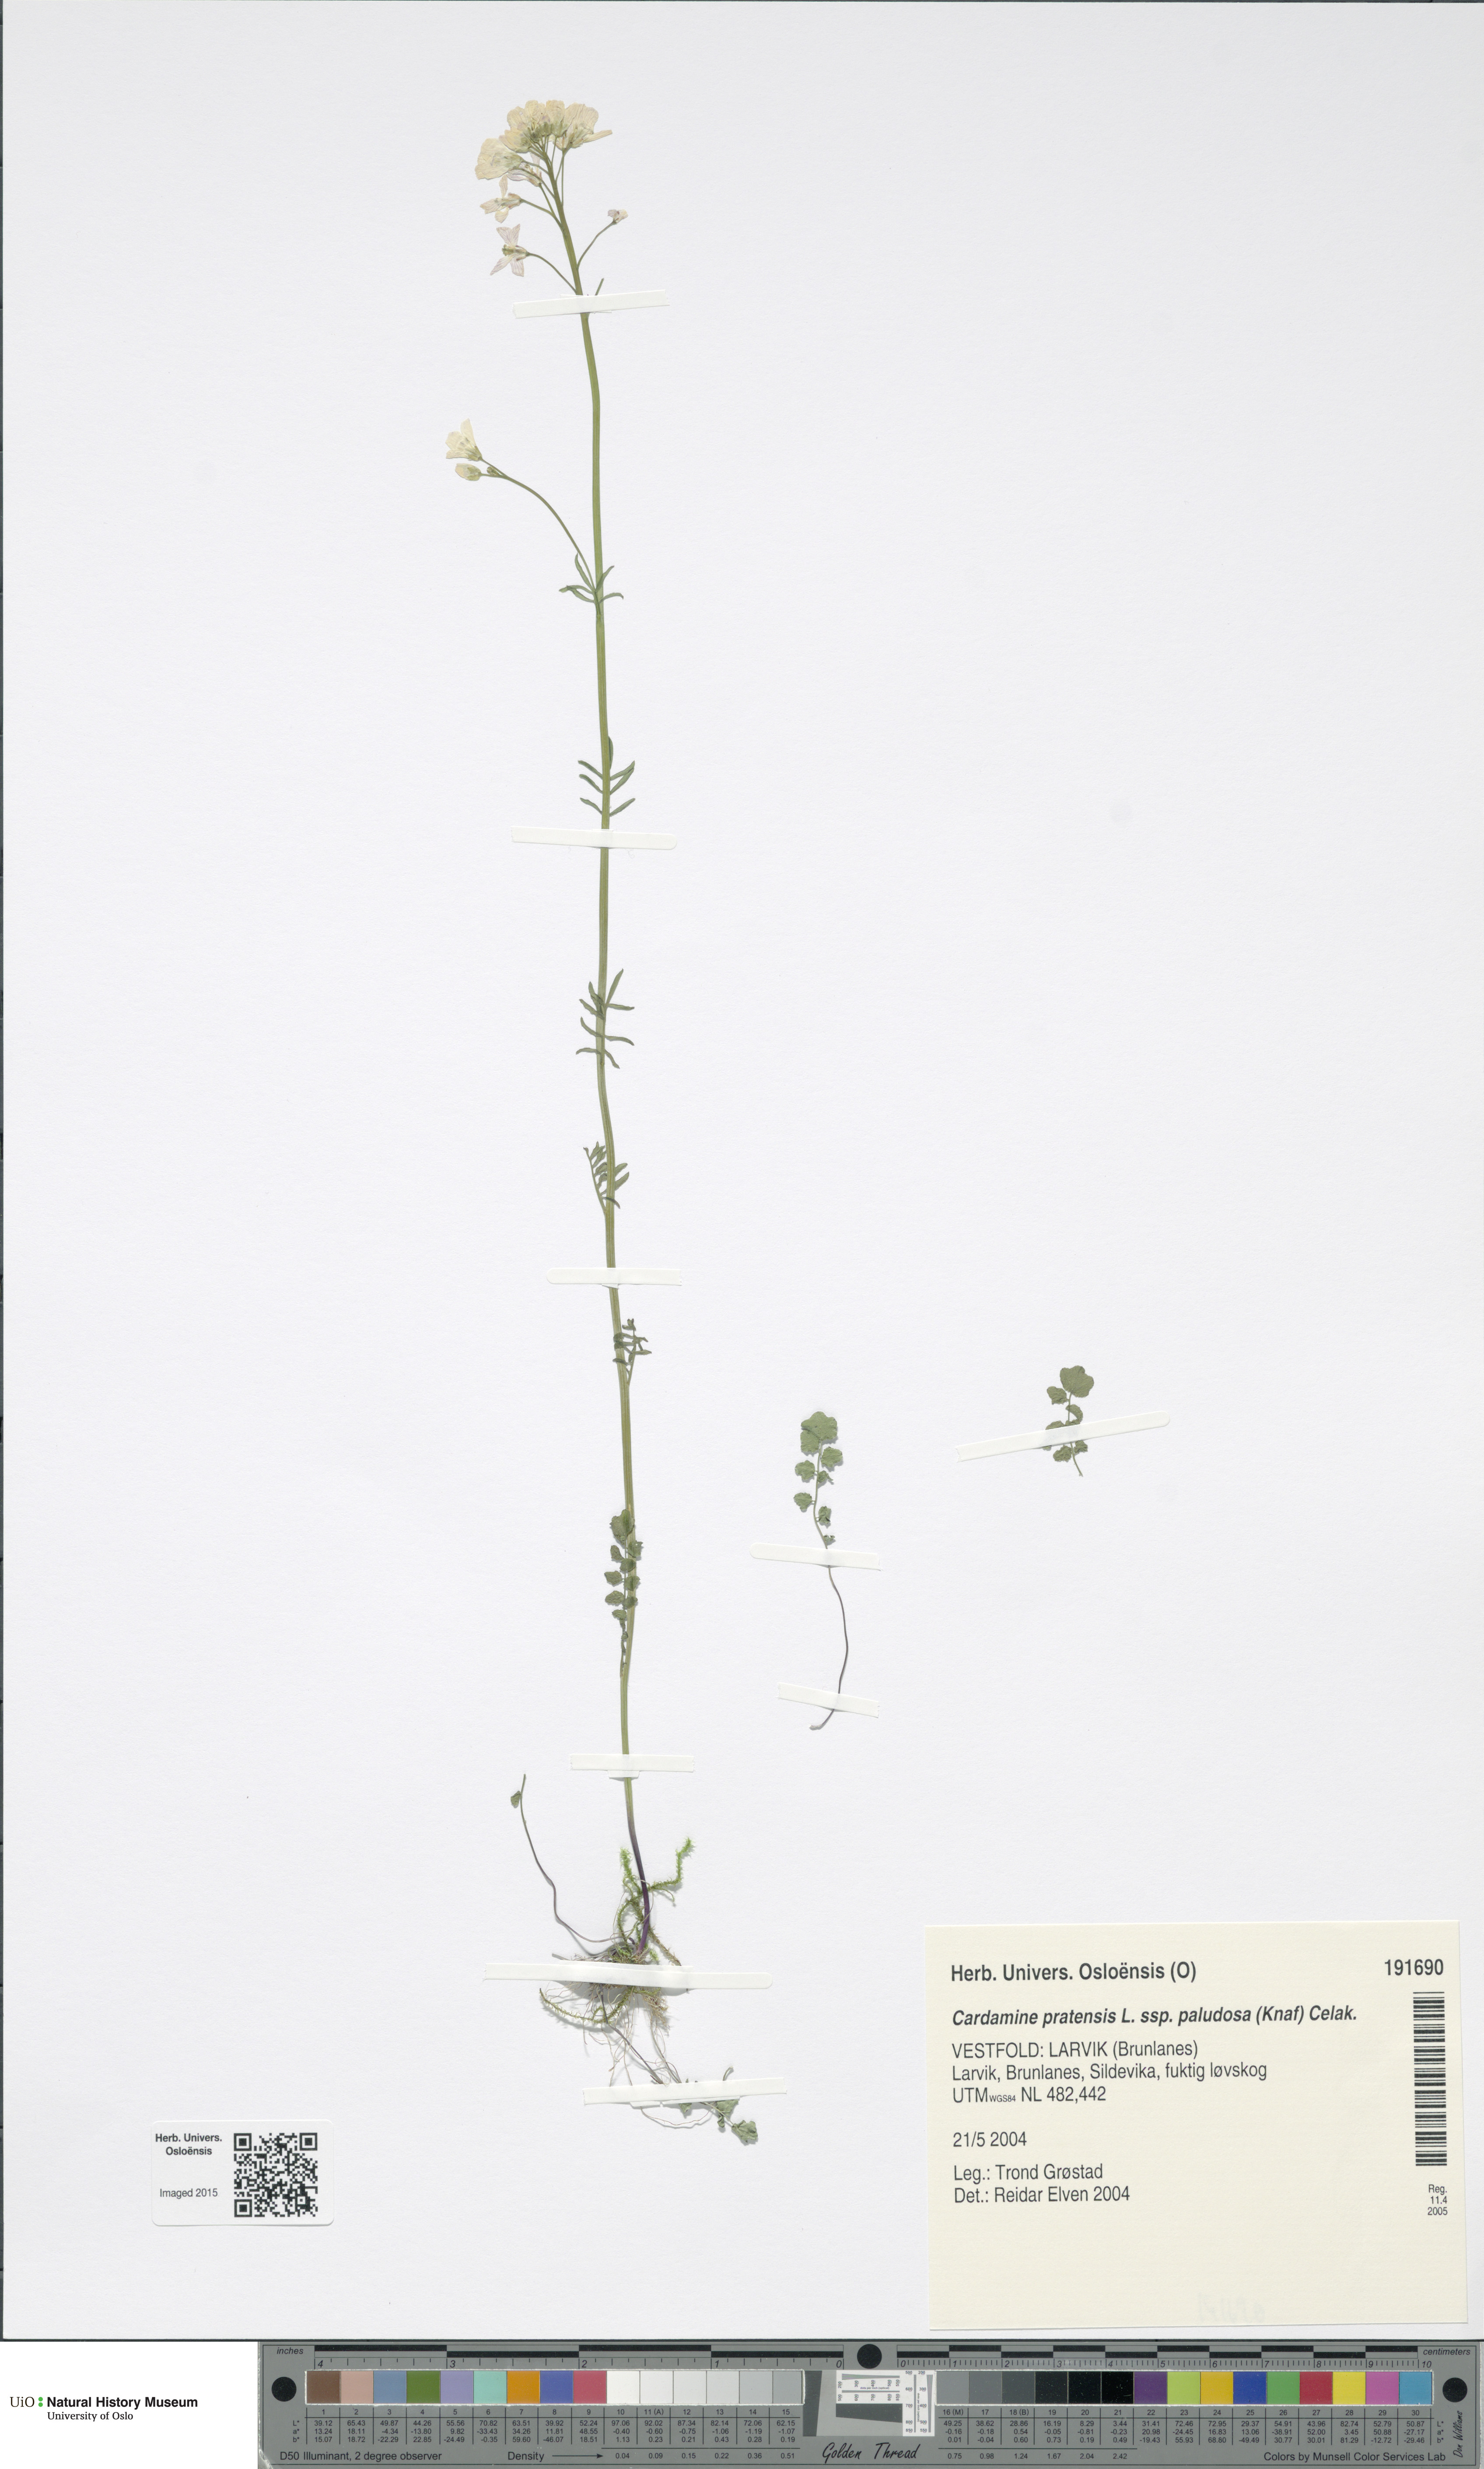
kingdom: Plantae
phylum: Tracheophyta
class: Magnoliopsida
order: Brassicales
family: Brassicaceae
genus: Cardamine
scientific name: Cardamine dentata
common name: Toothed bittercress
